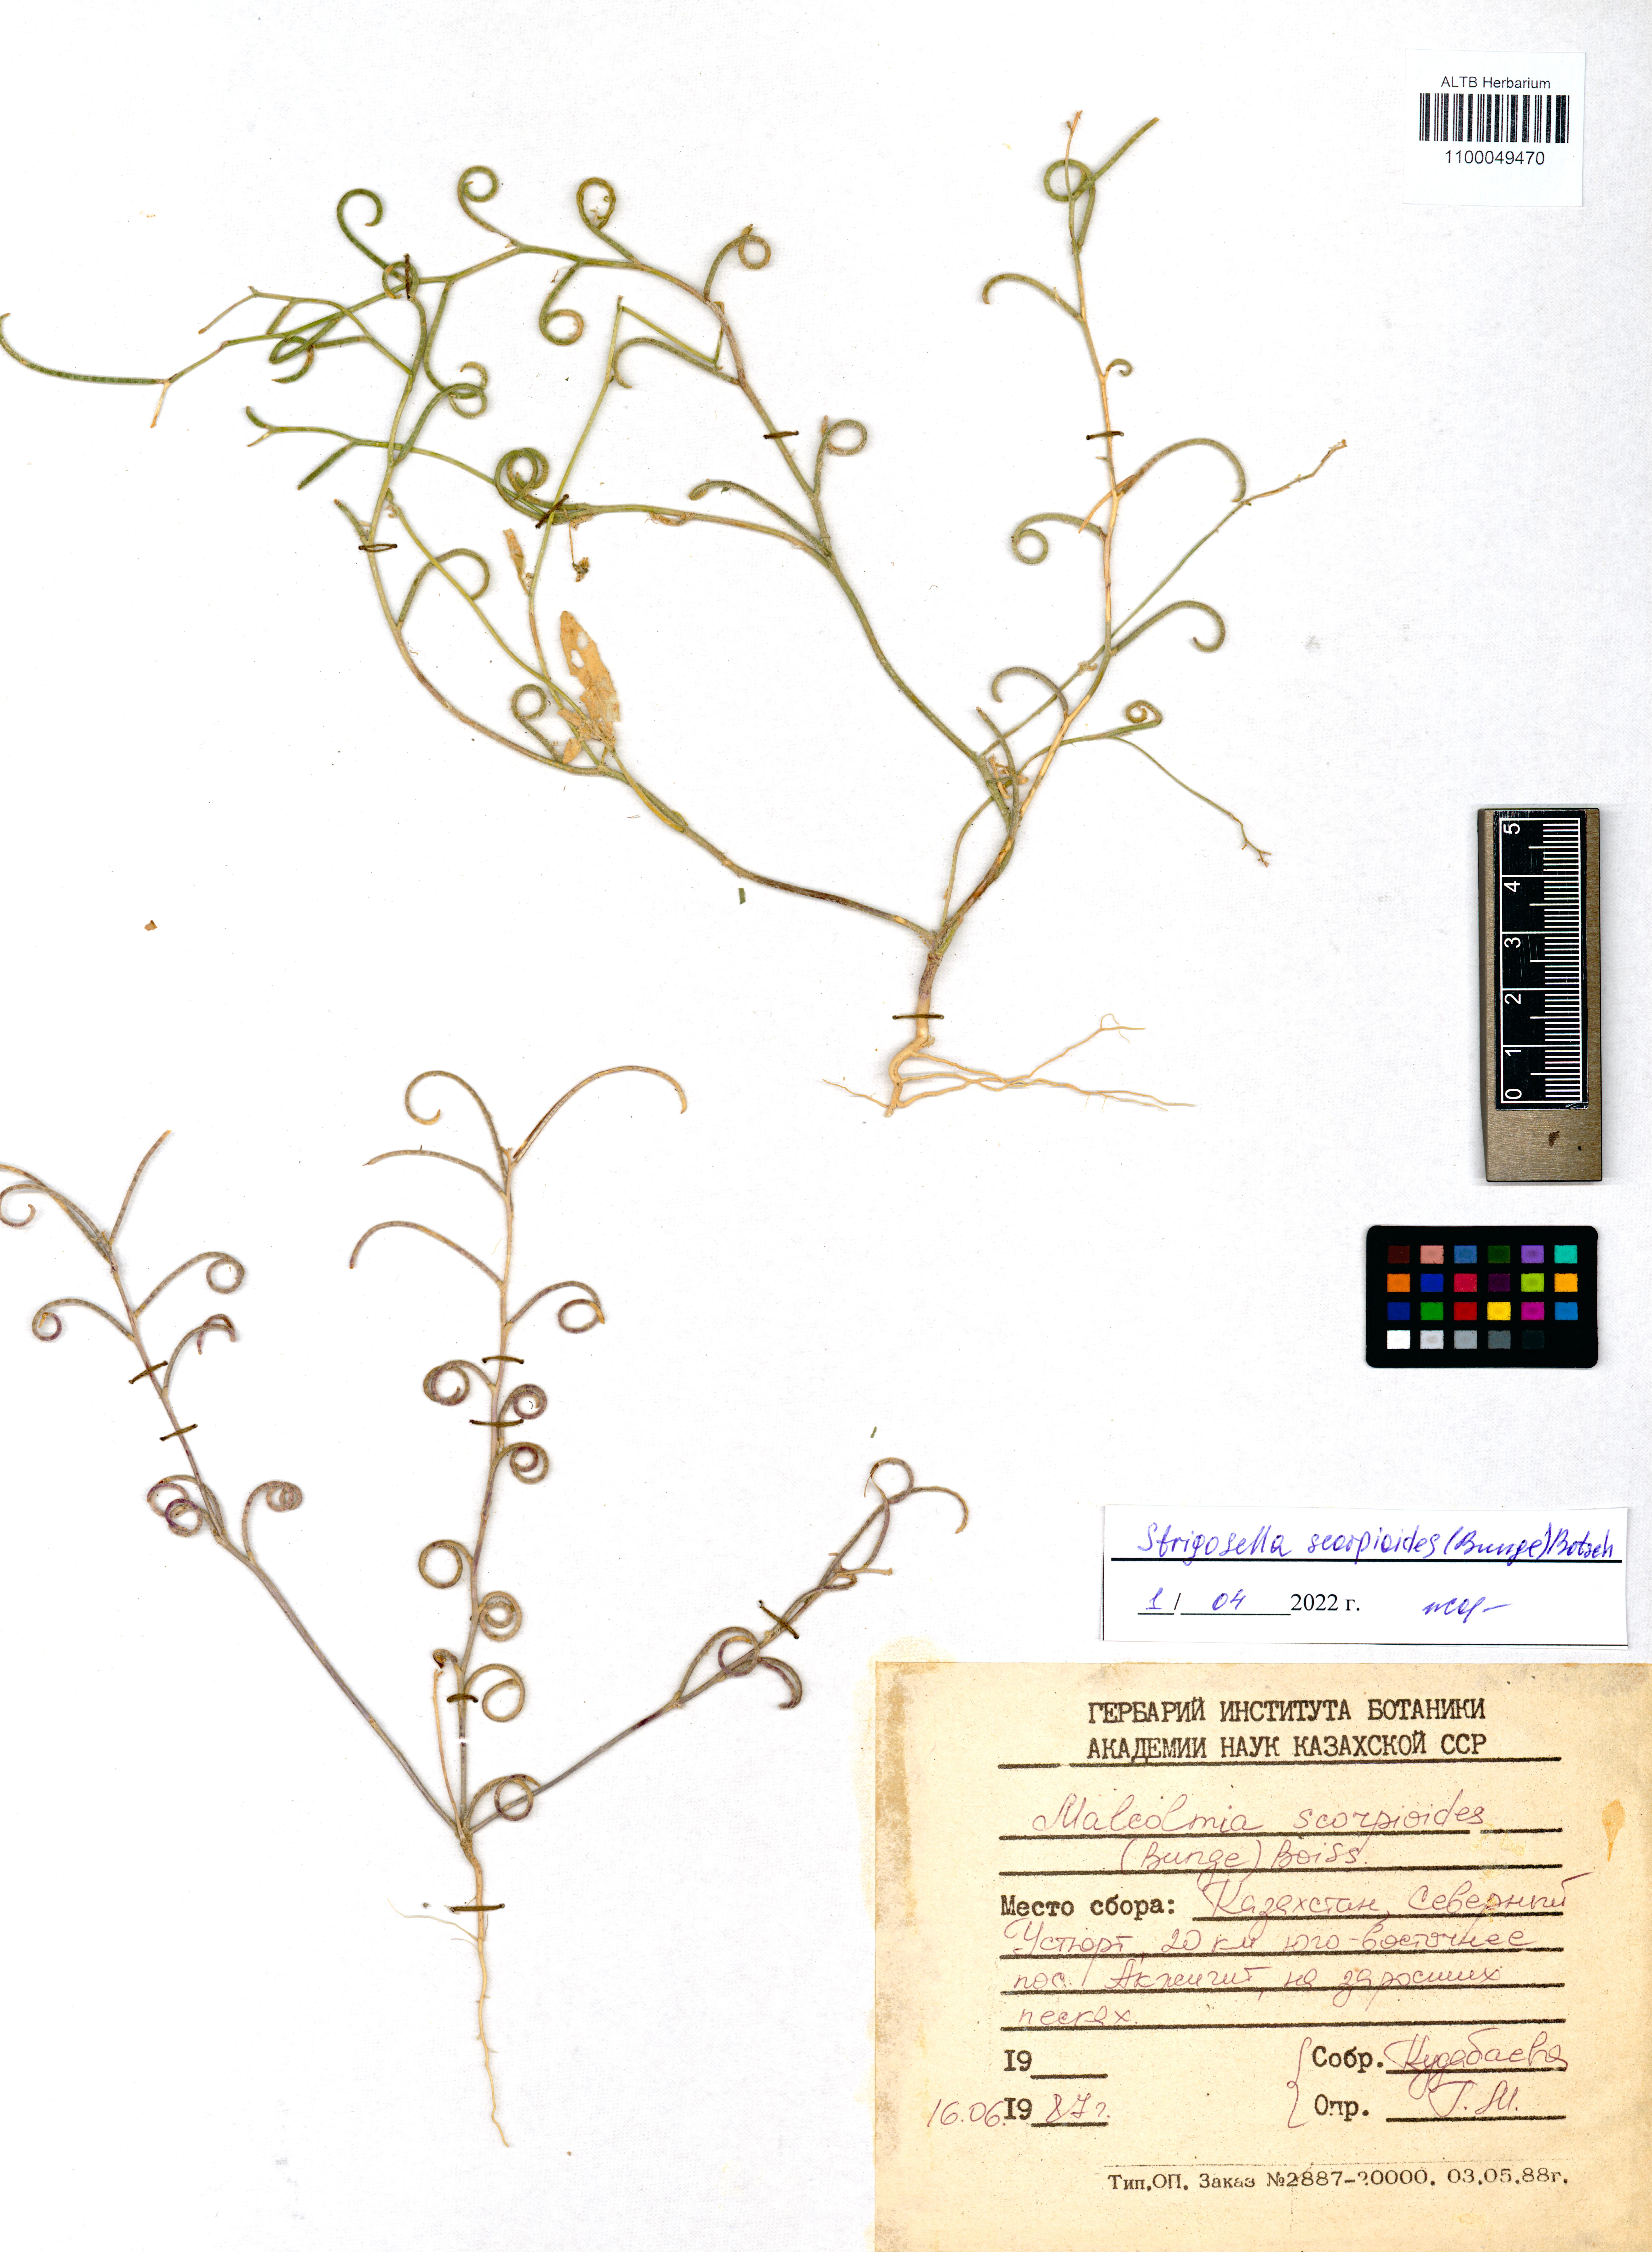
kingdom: Plantae
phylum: Tracheophyta
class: Magnoliopsida
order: Brassicales
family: Brassicaceae
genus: Strigosella
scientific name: Strigosella scorpioides
